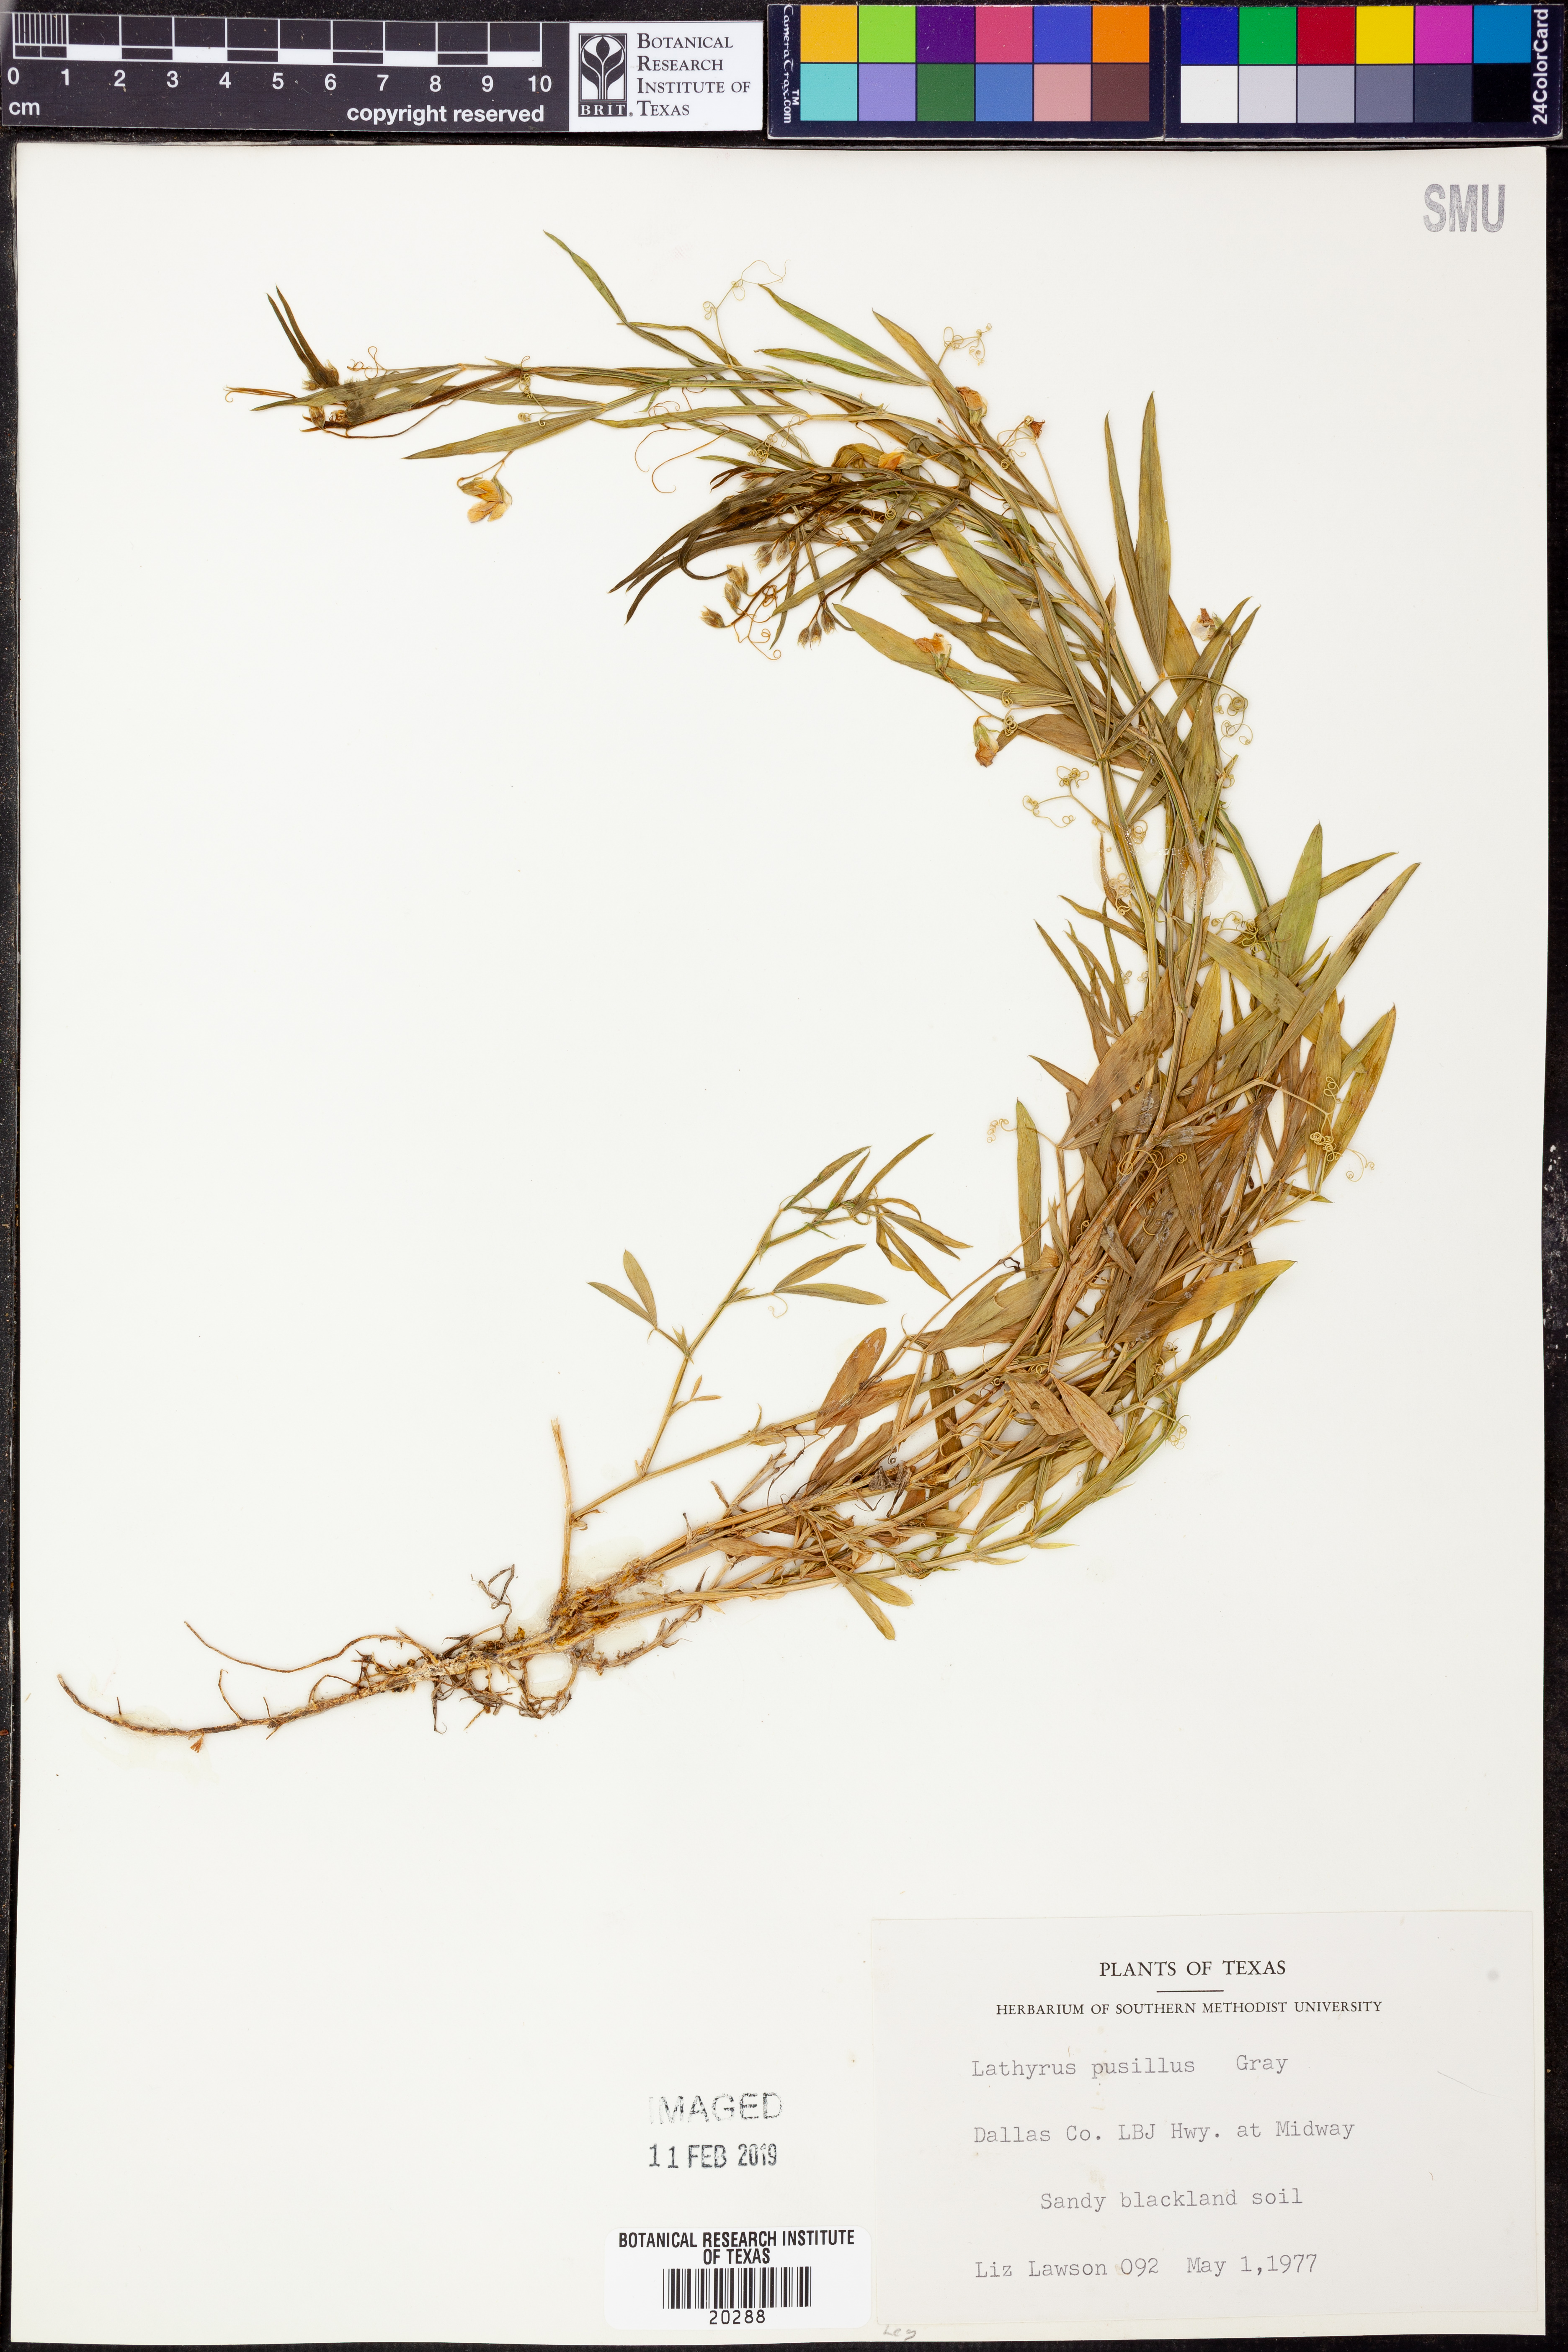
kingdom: Plantae
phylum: Tracheophyta
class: Magnoliopsida
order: Fabales
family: Fabaceae
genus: Lathyrus
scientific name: Lathyrus pusillus
